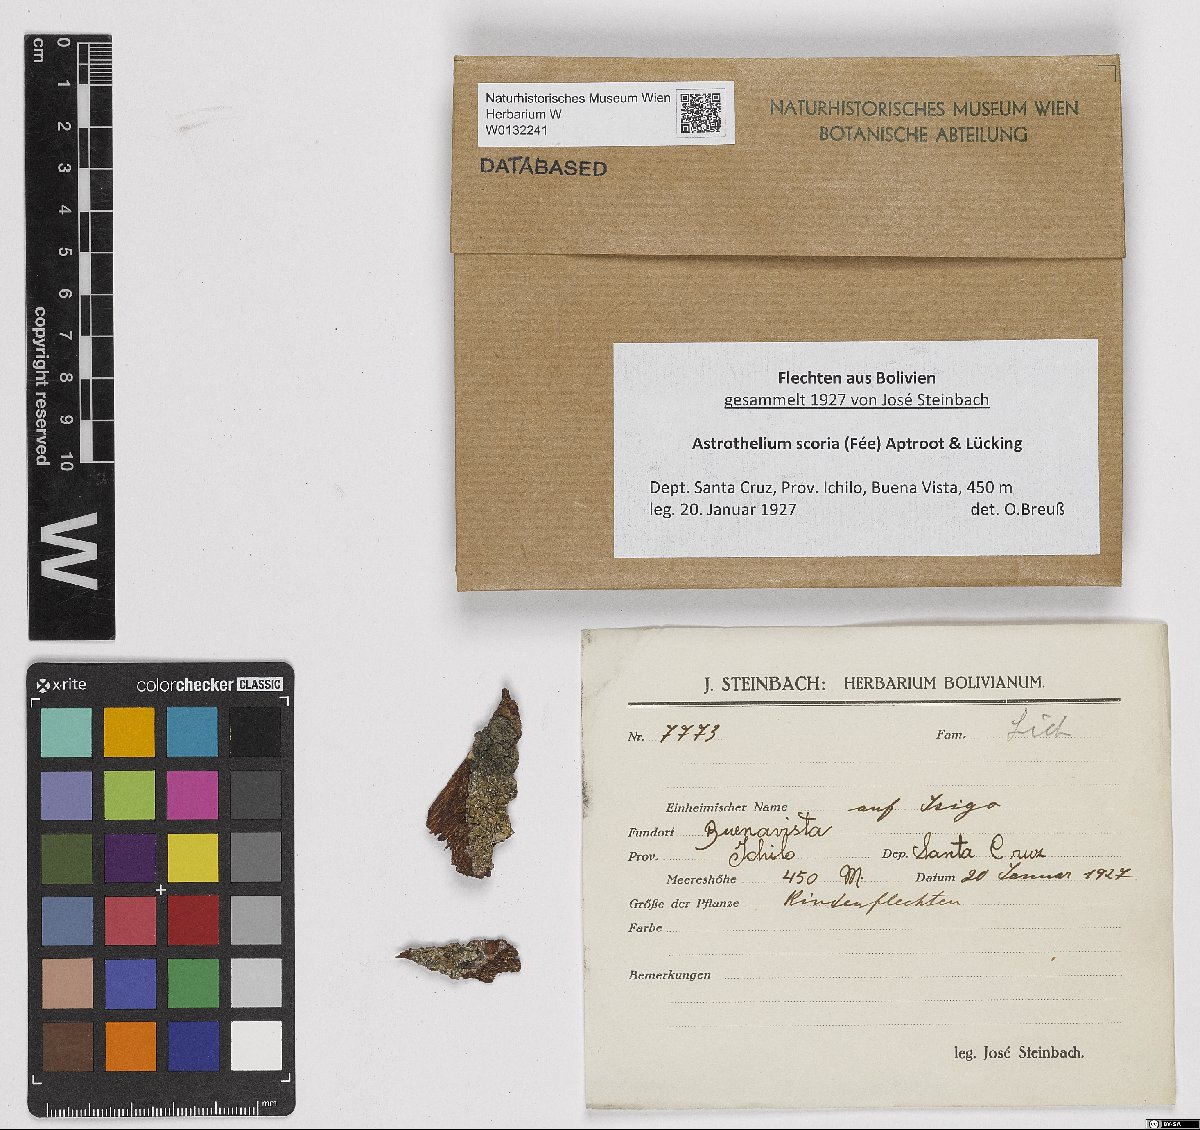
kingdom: Fungi
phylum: Ascomycota
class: Dothideomycetes
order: Trypetheliales
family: Trypetheliaceae
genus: Astrothelium
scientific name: Astrothelium scoria
